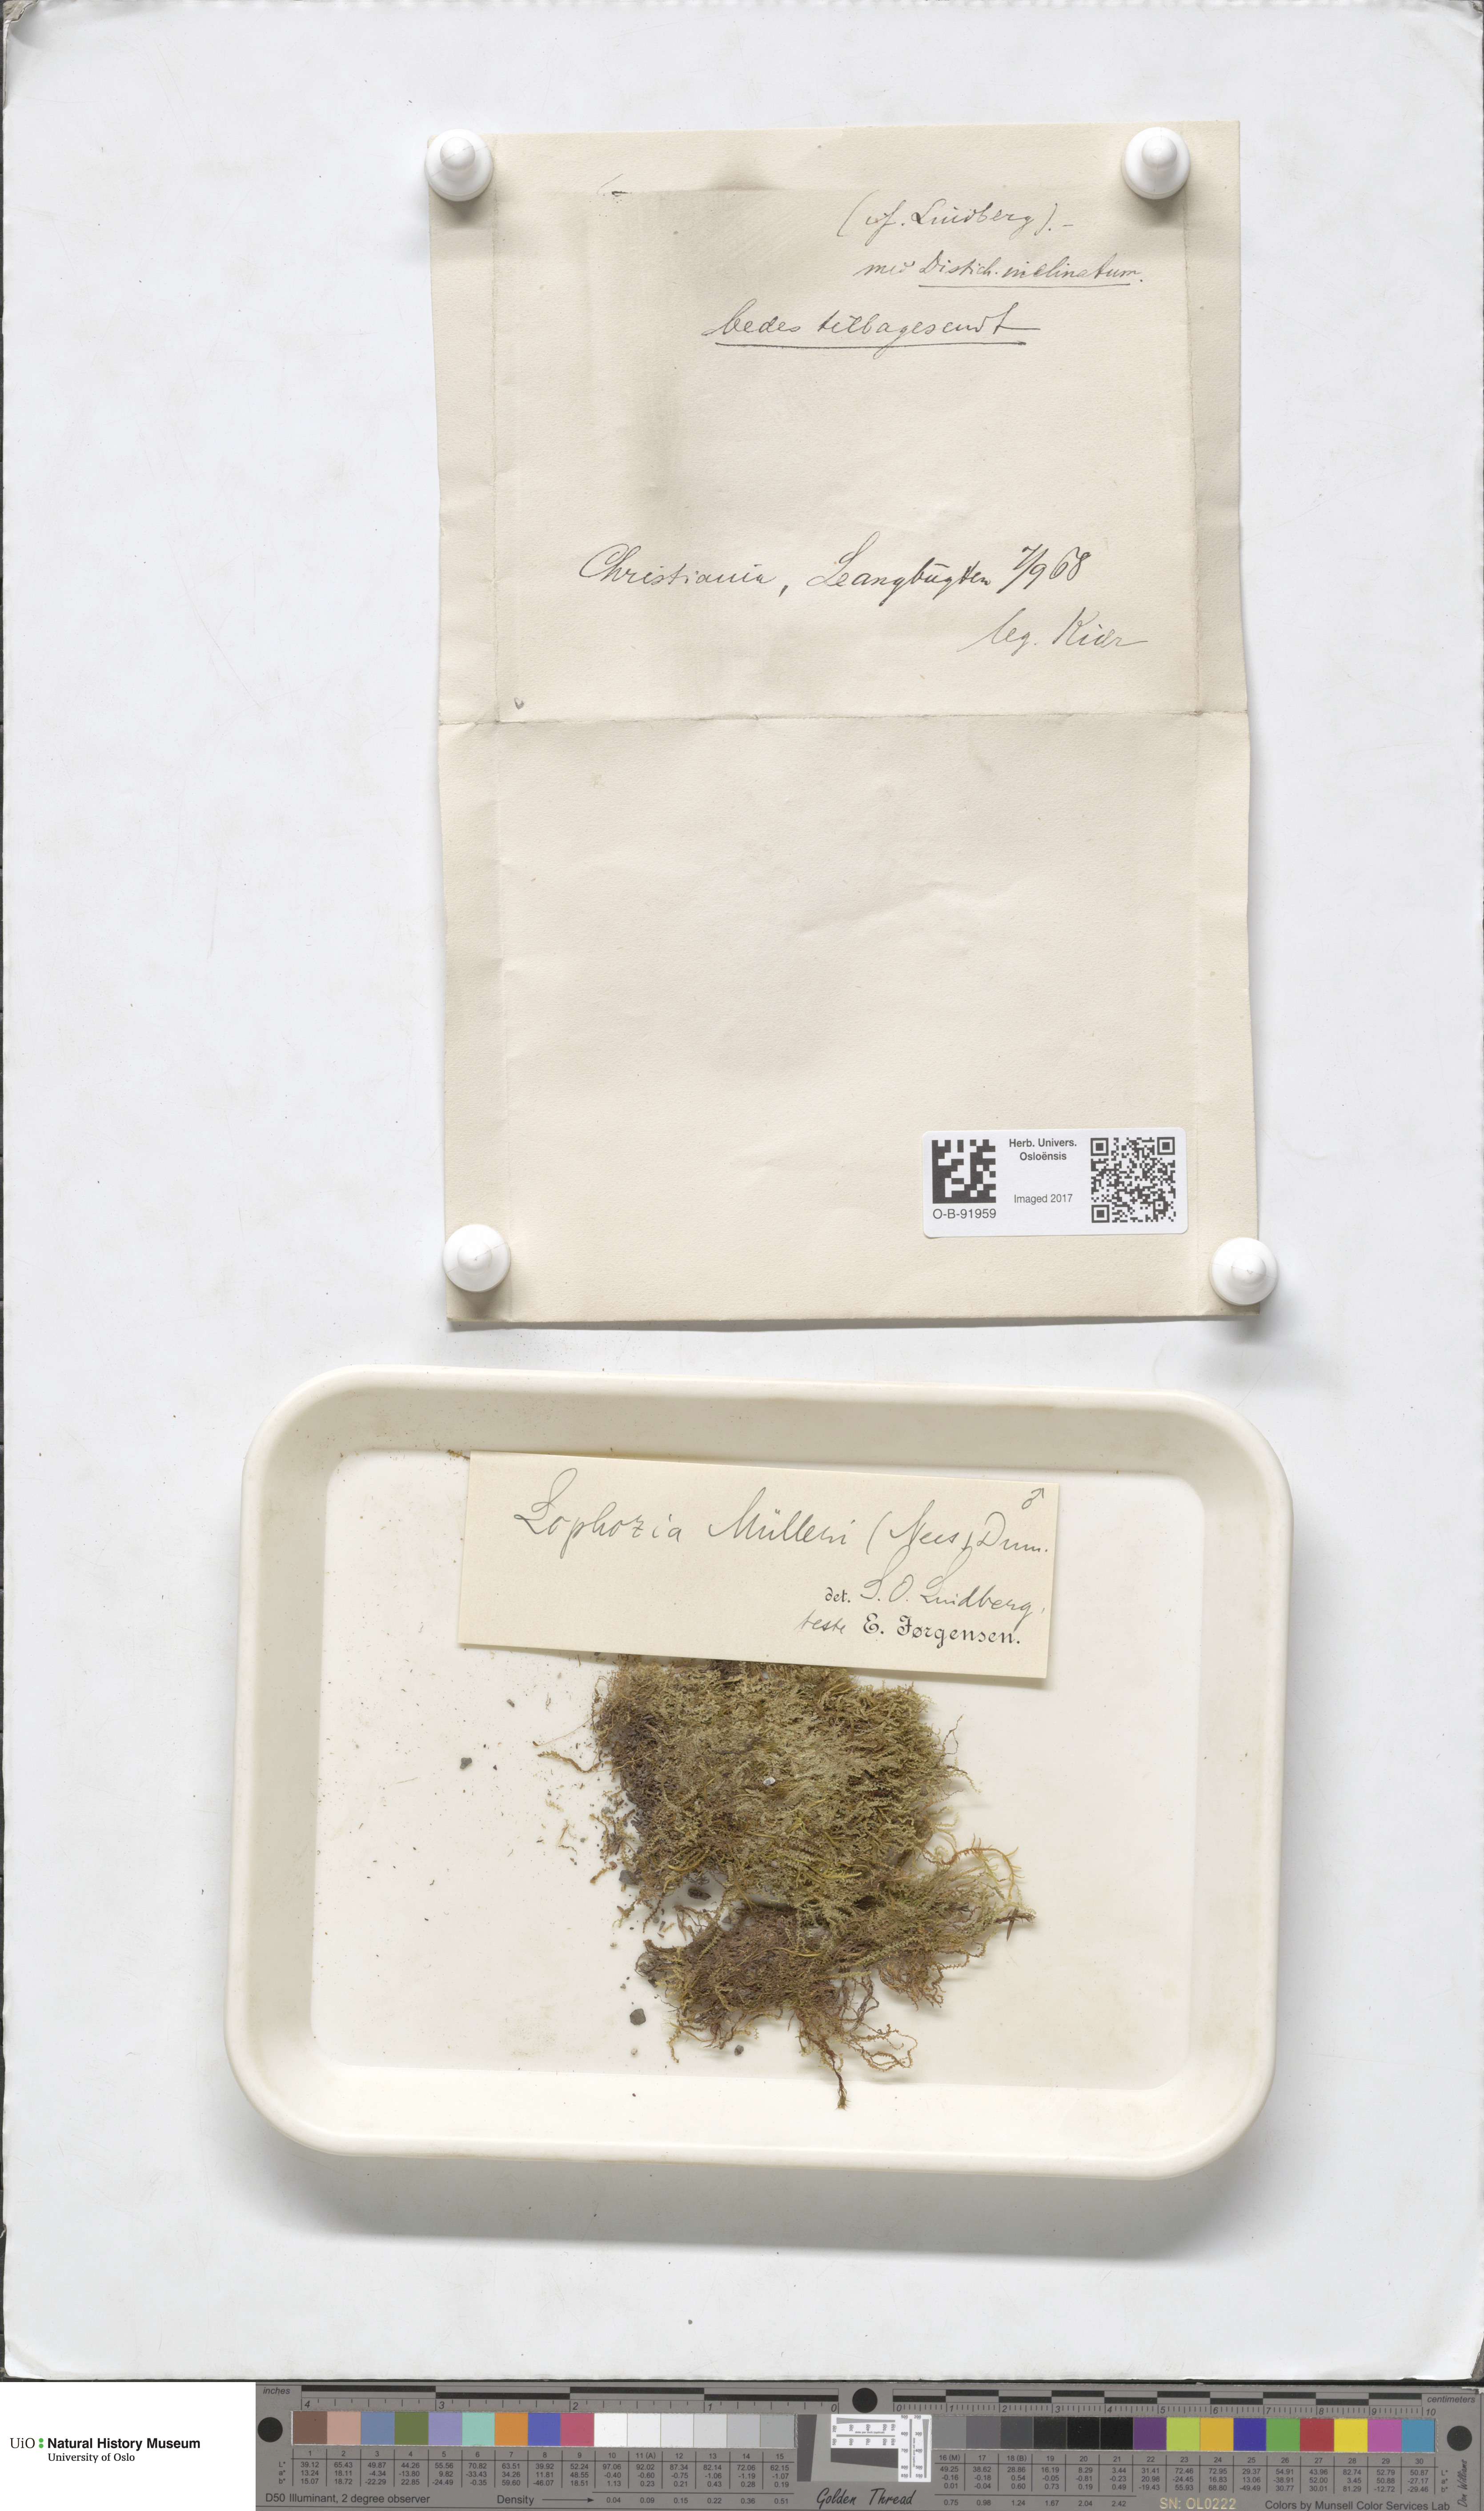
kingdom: Plantae
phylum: Marchantiophyta
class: Jungermanniopsida
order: Jungermanniales
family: Jungermanniaceae
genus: Mesoptychia
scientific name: Mesoptychia collaris
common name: Collared notchwort
